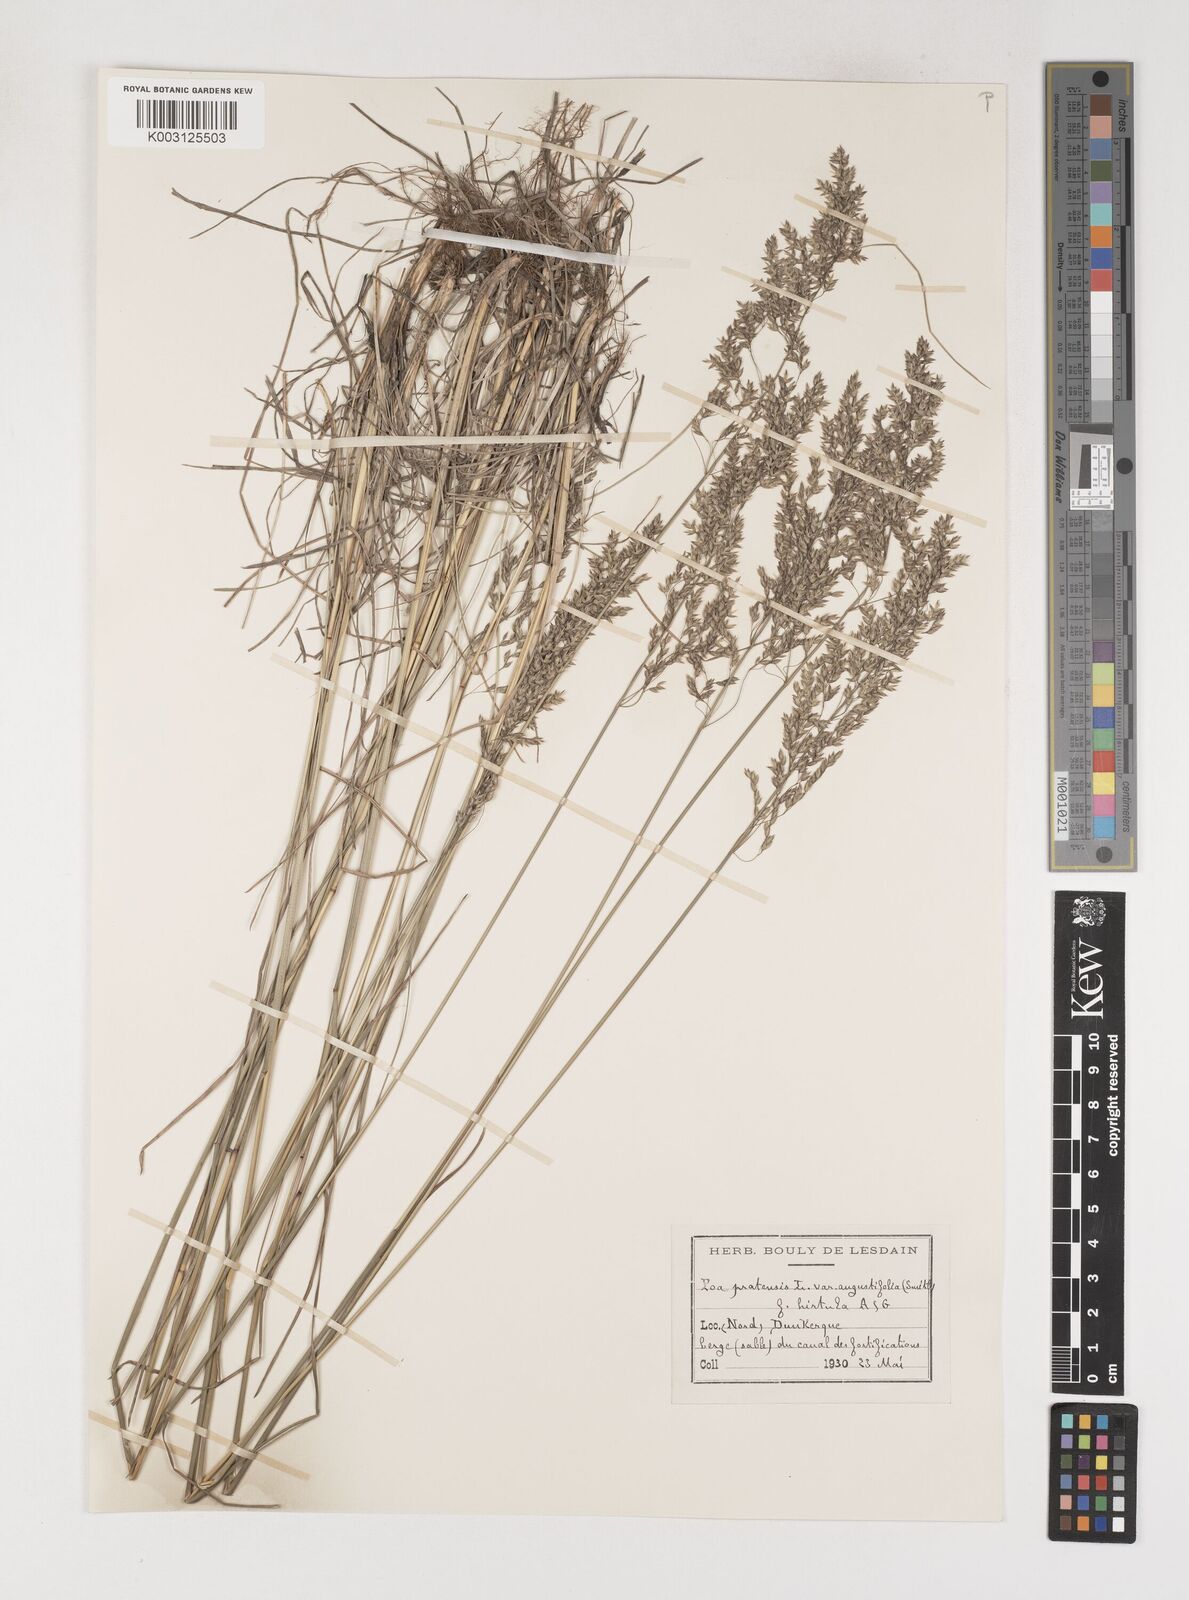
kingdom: Plantae
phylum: Tracheophyta
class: Liliopsida
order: Poales
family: Poaceae
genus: Poa
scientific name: Poa angustifolia
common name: Narrow-leaved meadow-grass
